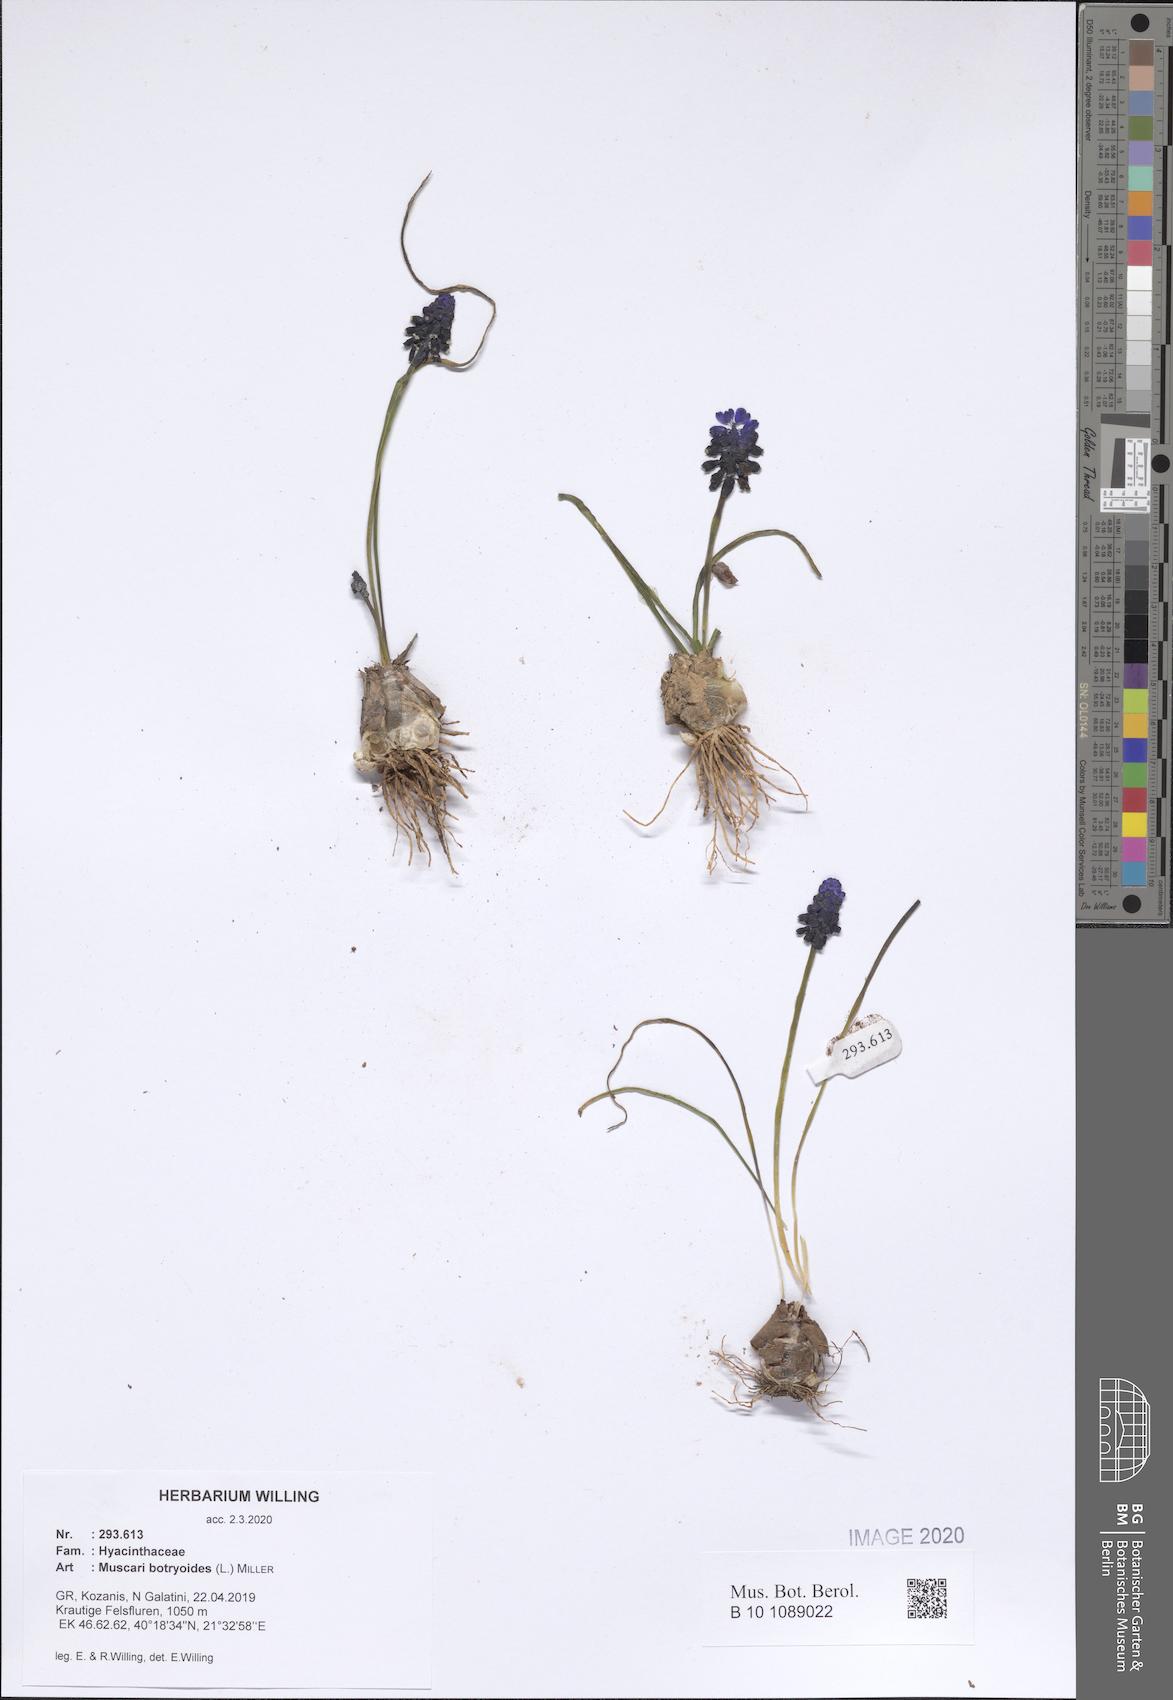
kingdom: Plantae
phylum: Tracheophyta
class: Liliopsida
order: Asparagales
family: Asparagaceae
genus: Muscari
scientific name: Muscari botryoides
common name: Compact grape-hyacinth
